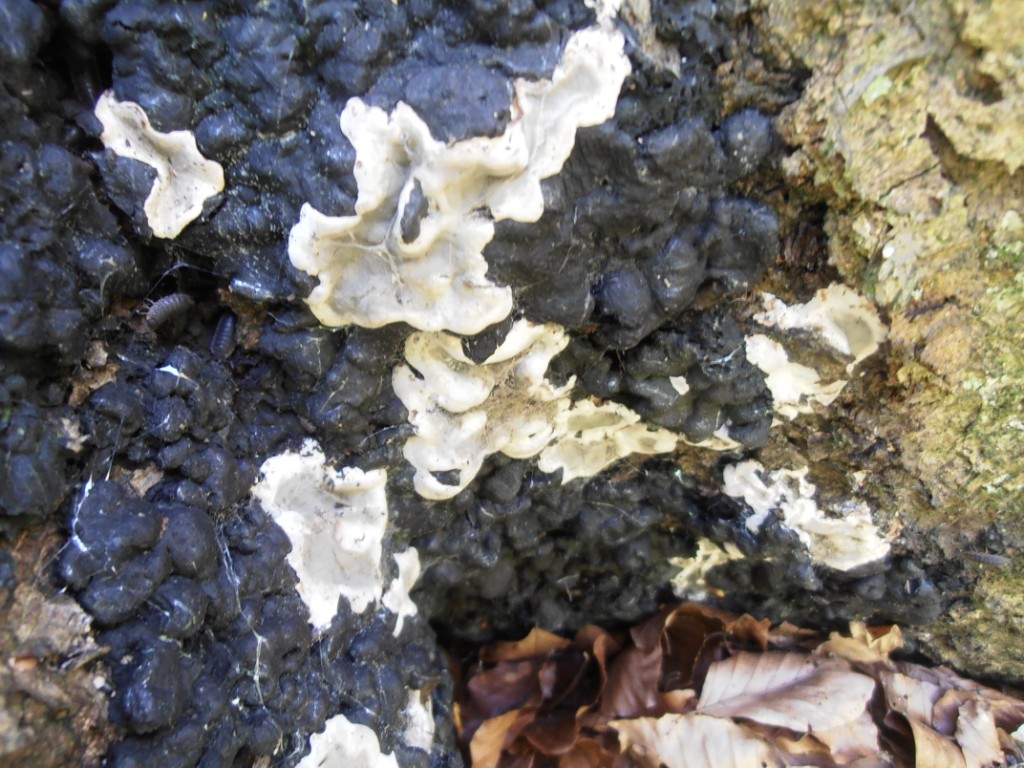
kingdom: Fungi
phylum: Ascomycota
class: Sordariomycetes
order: Xylariales
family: Xylariaceae
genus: Kretzschmaria
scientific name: Kretzschmaria deusta
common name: stor kulsvamp
